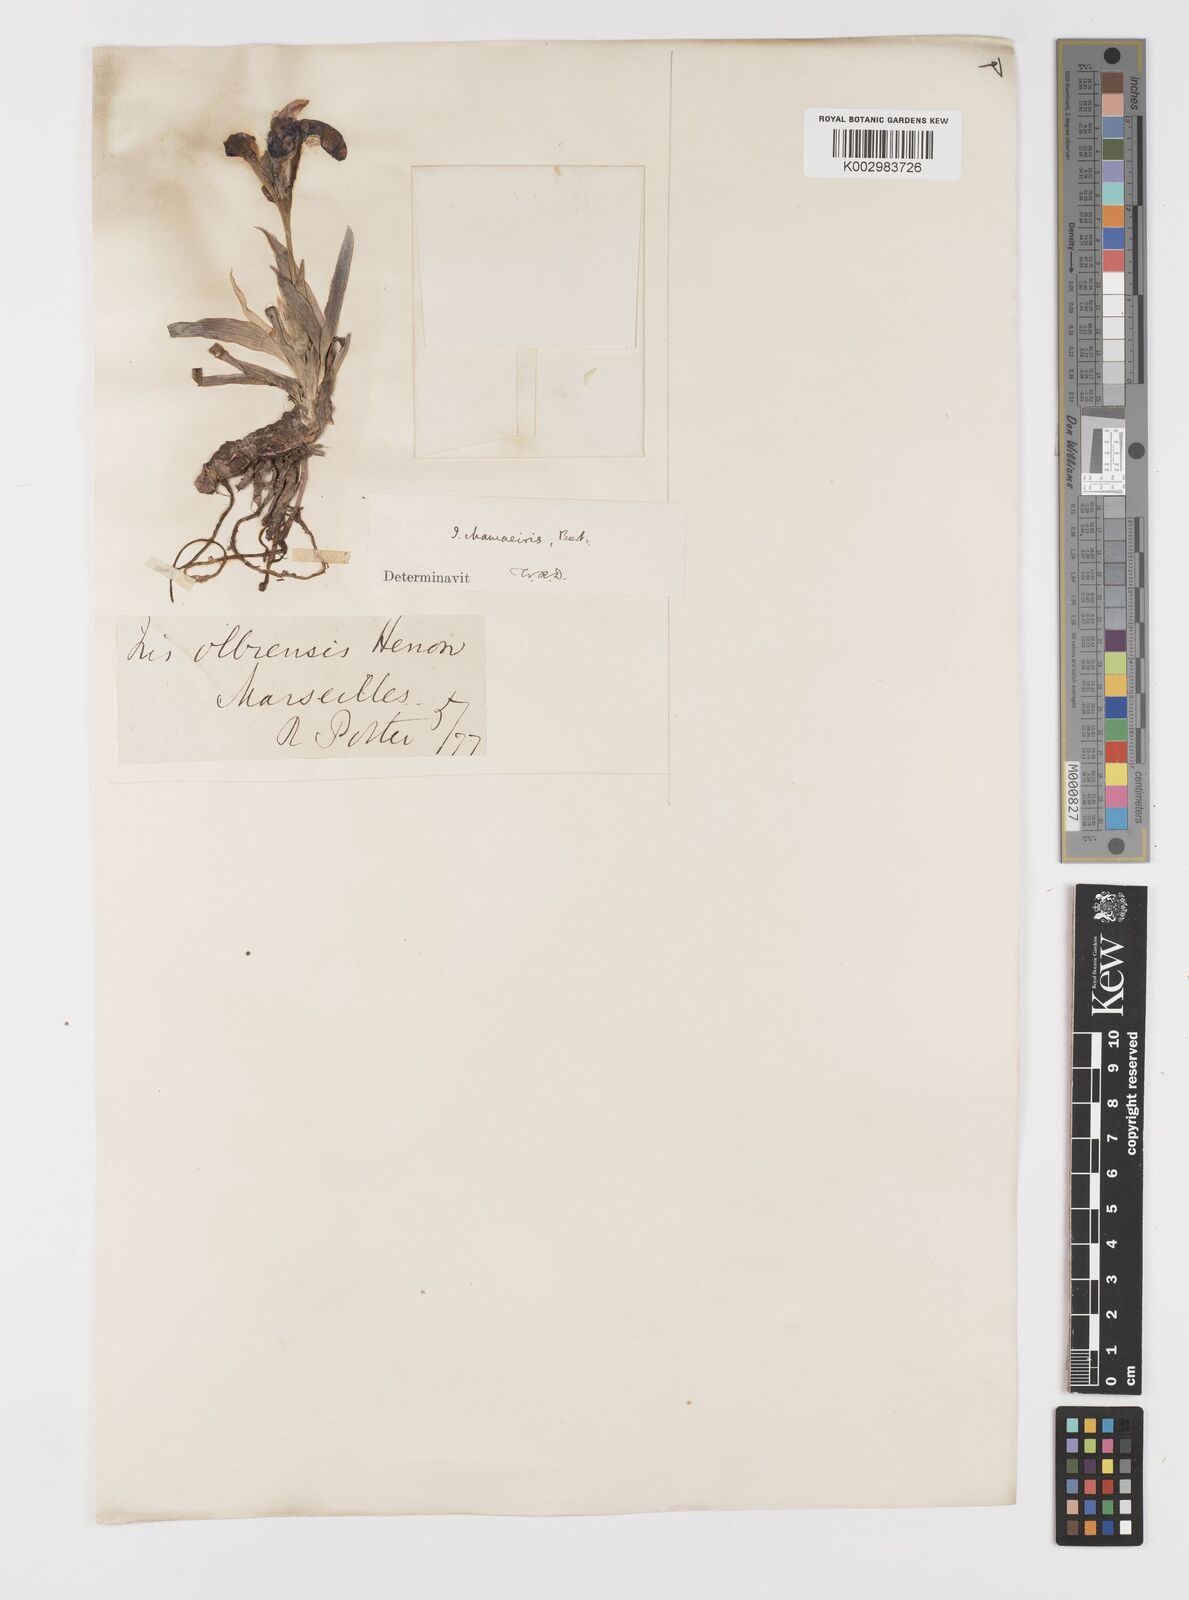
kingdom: Plantae
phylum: Tracheophyta
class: Liliopsida
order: Asparagales
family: Iridaceae
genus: Iris
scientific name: Iris lutescens
